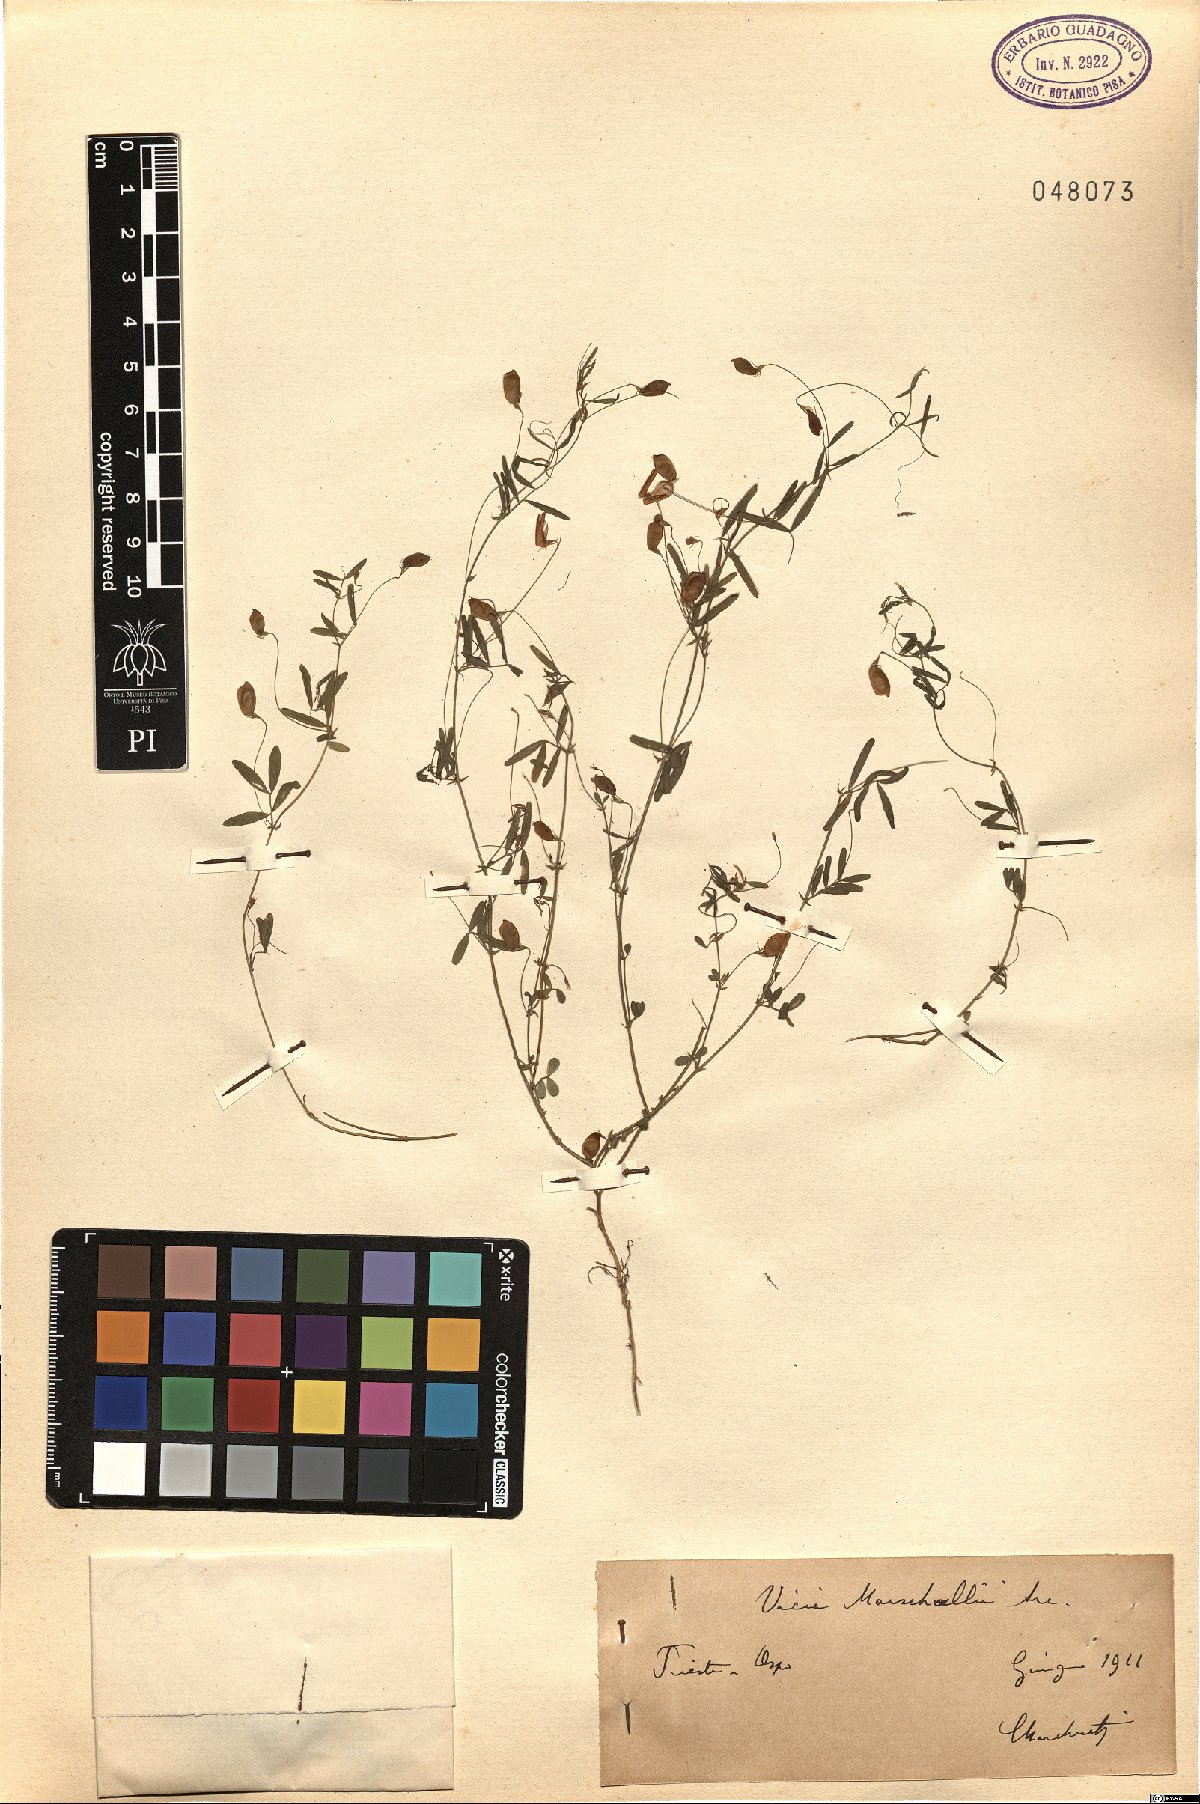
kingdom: Plantae
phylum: Tracheophyta
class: Magnoliopsida
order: Fabales
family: Fabaceae
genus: Vicia
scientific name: Vicia lentoides
